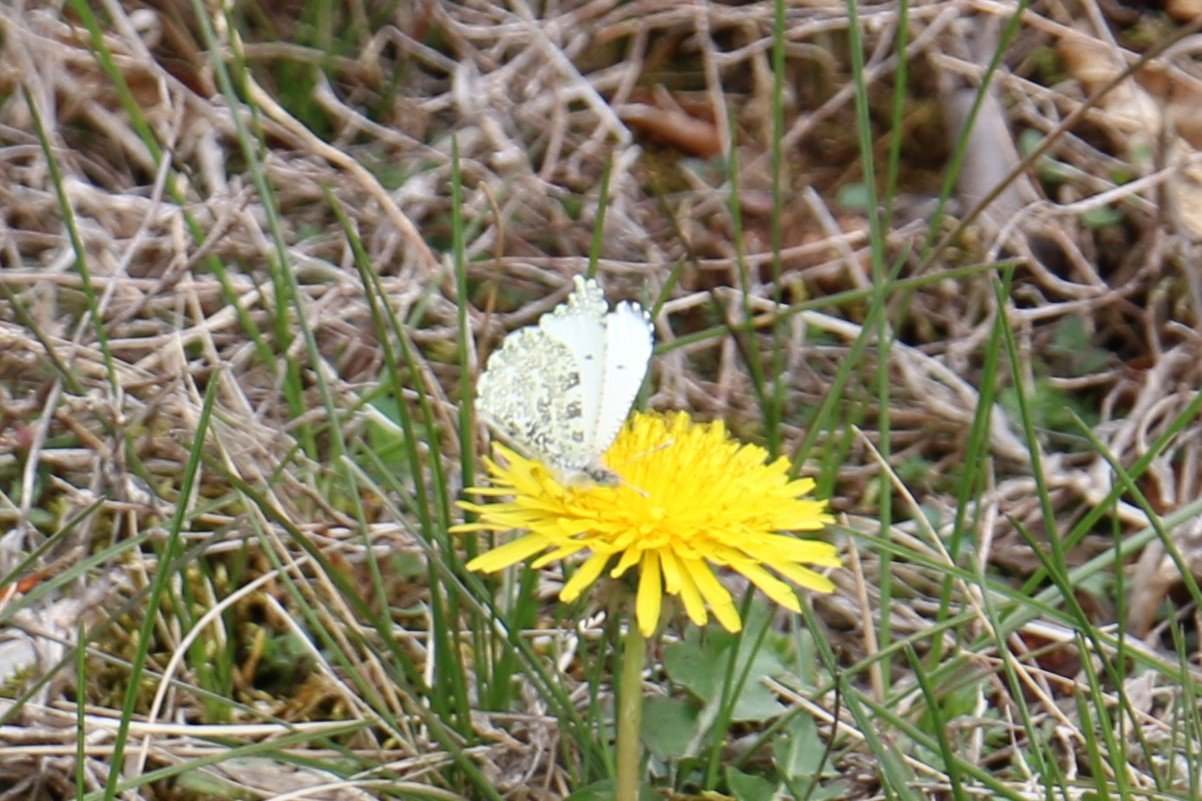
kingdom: Animalia
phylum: Arthropoda
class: Insecta
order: Lepidoptera
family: Pieridae
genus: Anthocharis
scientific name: Anthocharis midea
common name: Falcate Orangetip
